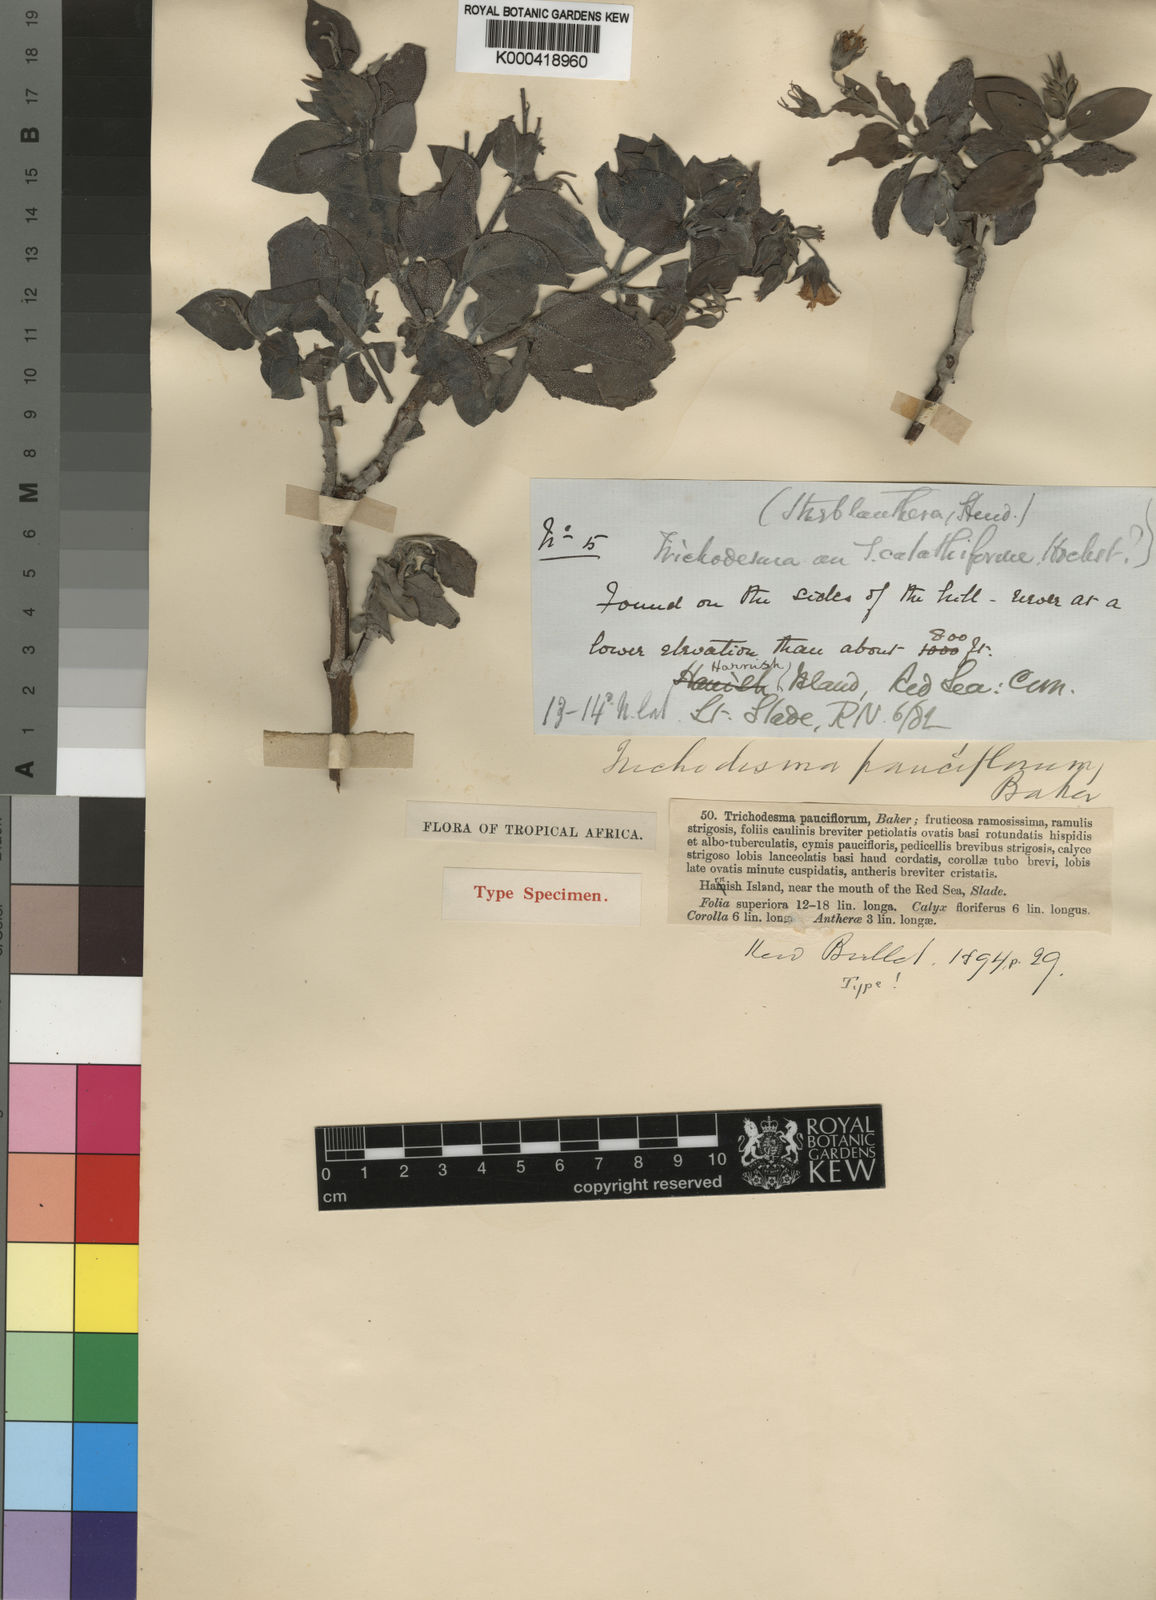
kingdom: Plantae
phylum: Tracheophyta
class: Magnoliopsida
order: Boraginales
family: Boraginaceae
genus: Trichodesma
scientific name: Trichodesma
